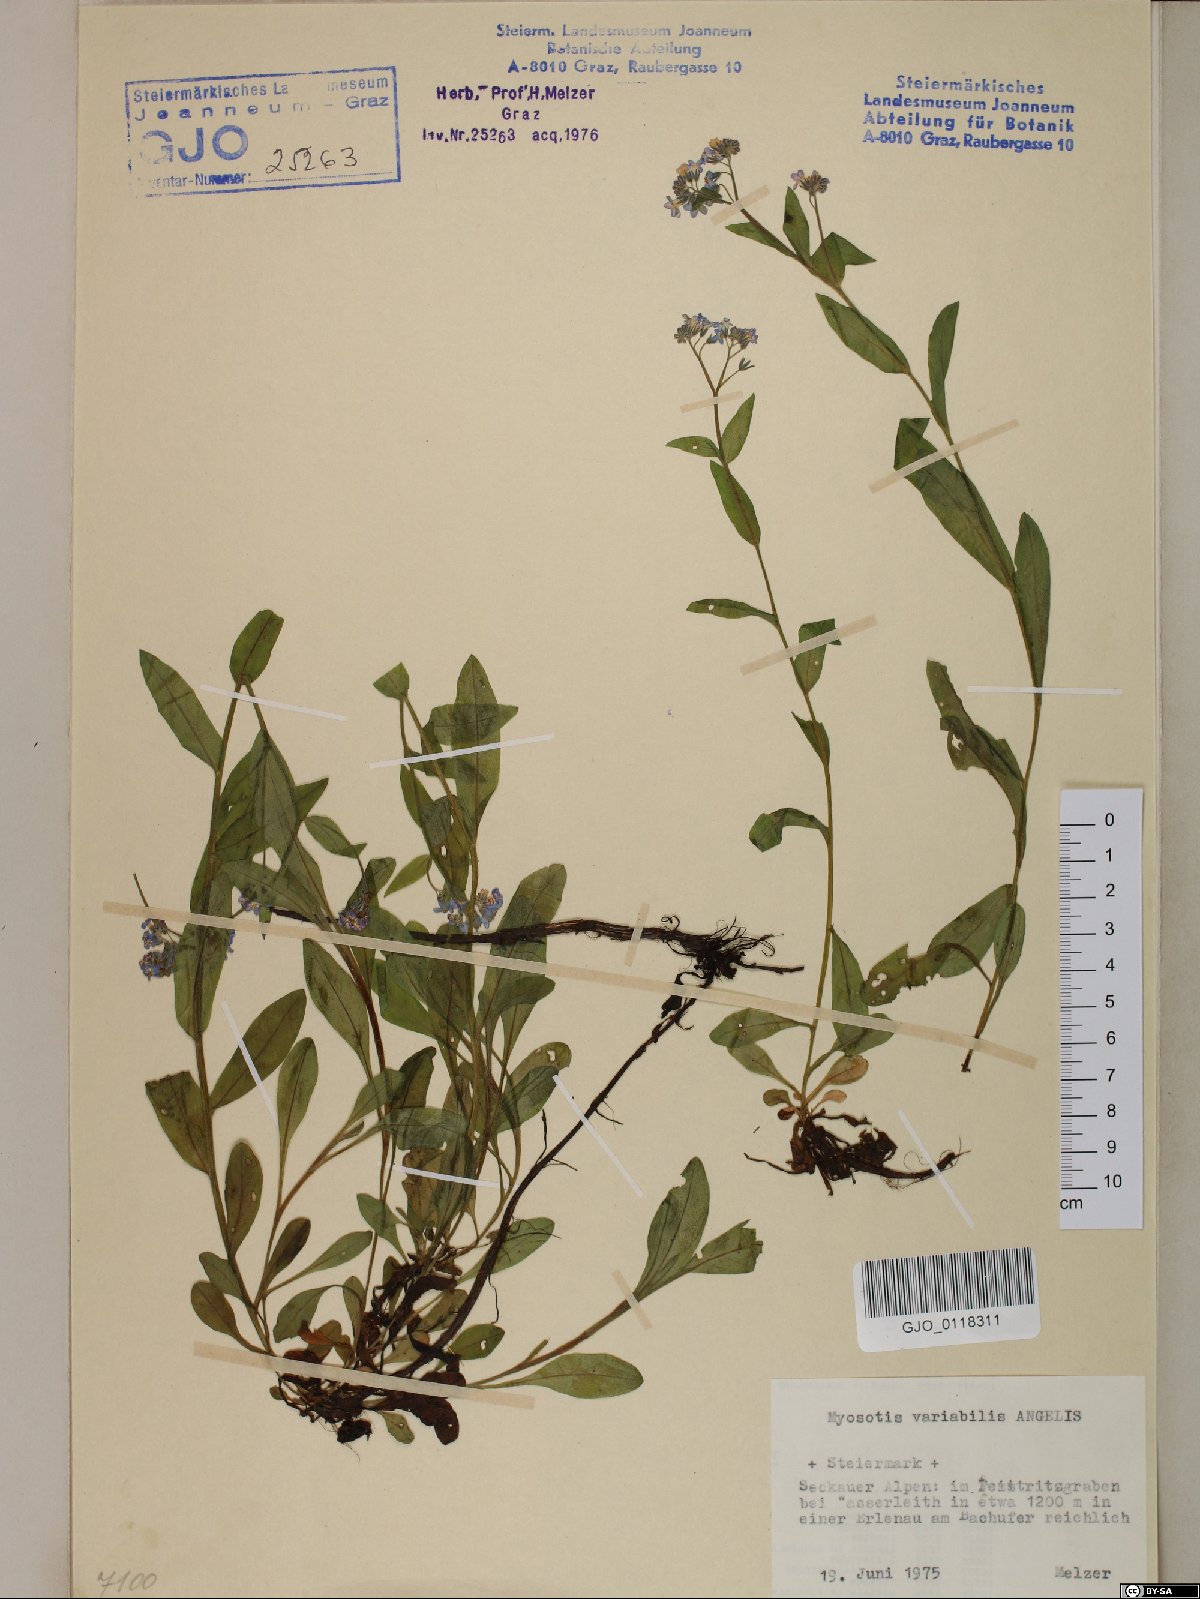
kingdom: Plantae
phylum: Tracheophyta
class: Magnoliopsida
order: Boraginales
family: Boraginaceae
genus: Myosotis
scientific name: Myosotis decumbens
